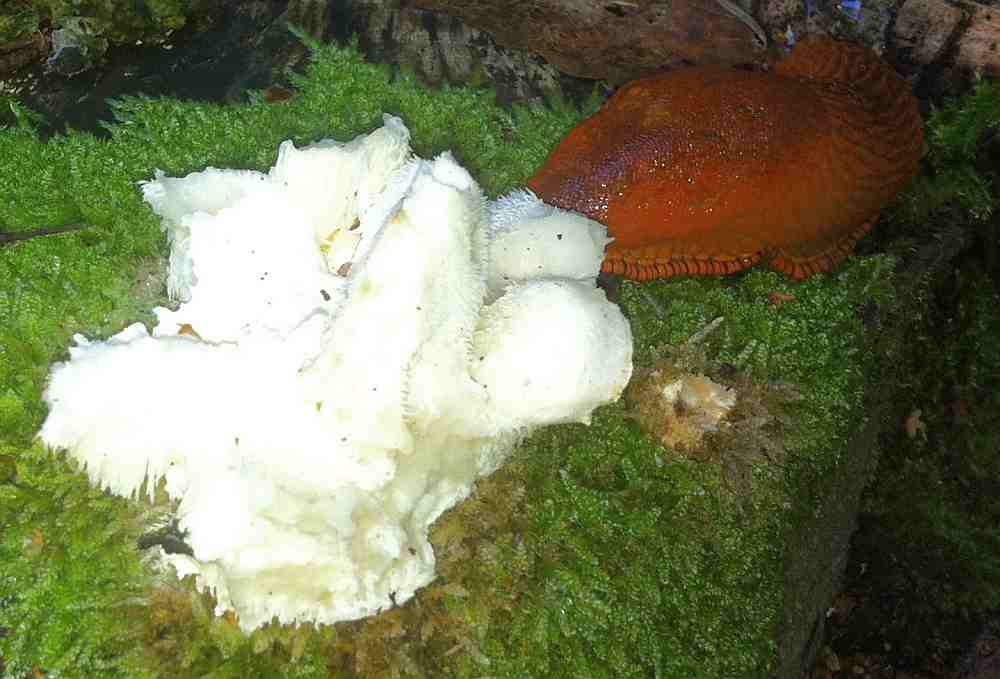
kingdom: Fungi
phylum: Basidiomycota
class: Agaricomycetes
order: Russulales
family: Hericiaceae
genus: Hericium
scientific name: Hericium cirrhatum
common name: børstepigsvamp
